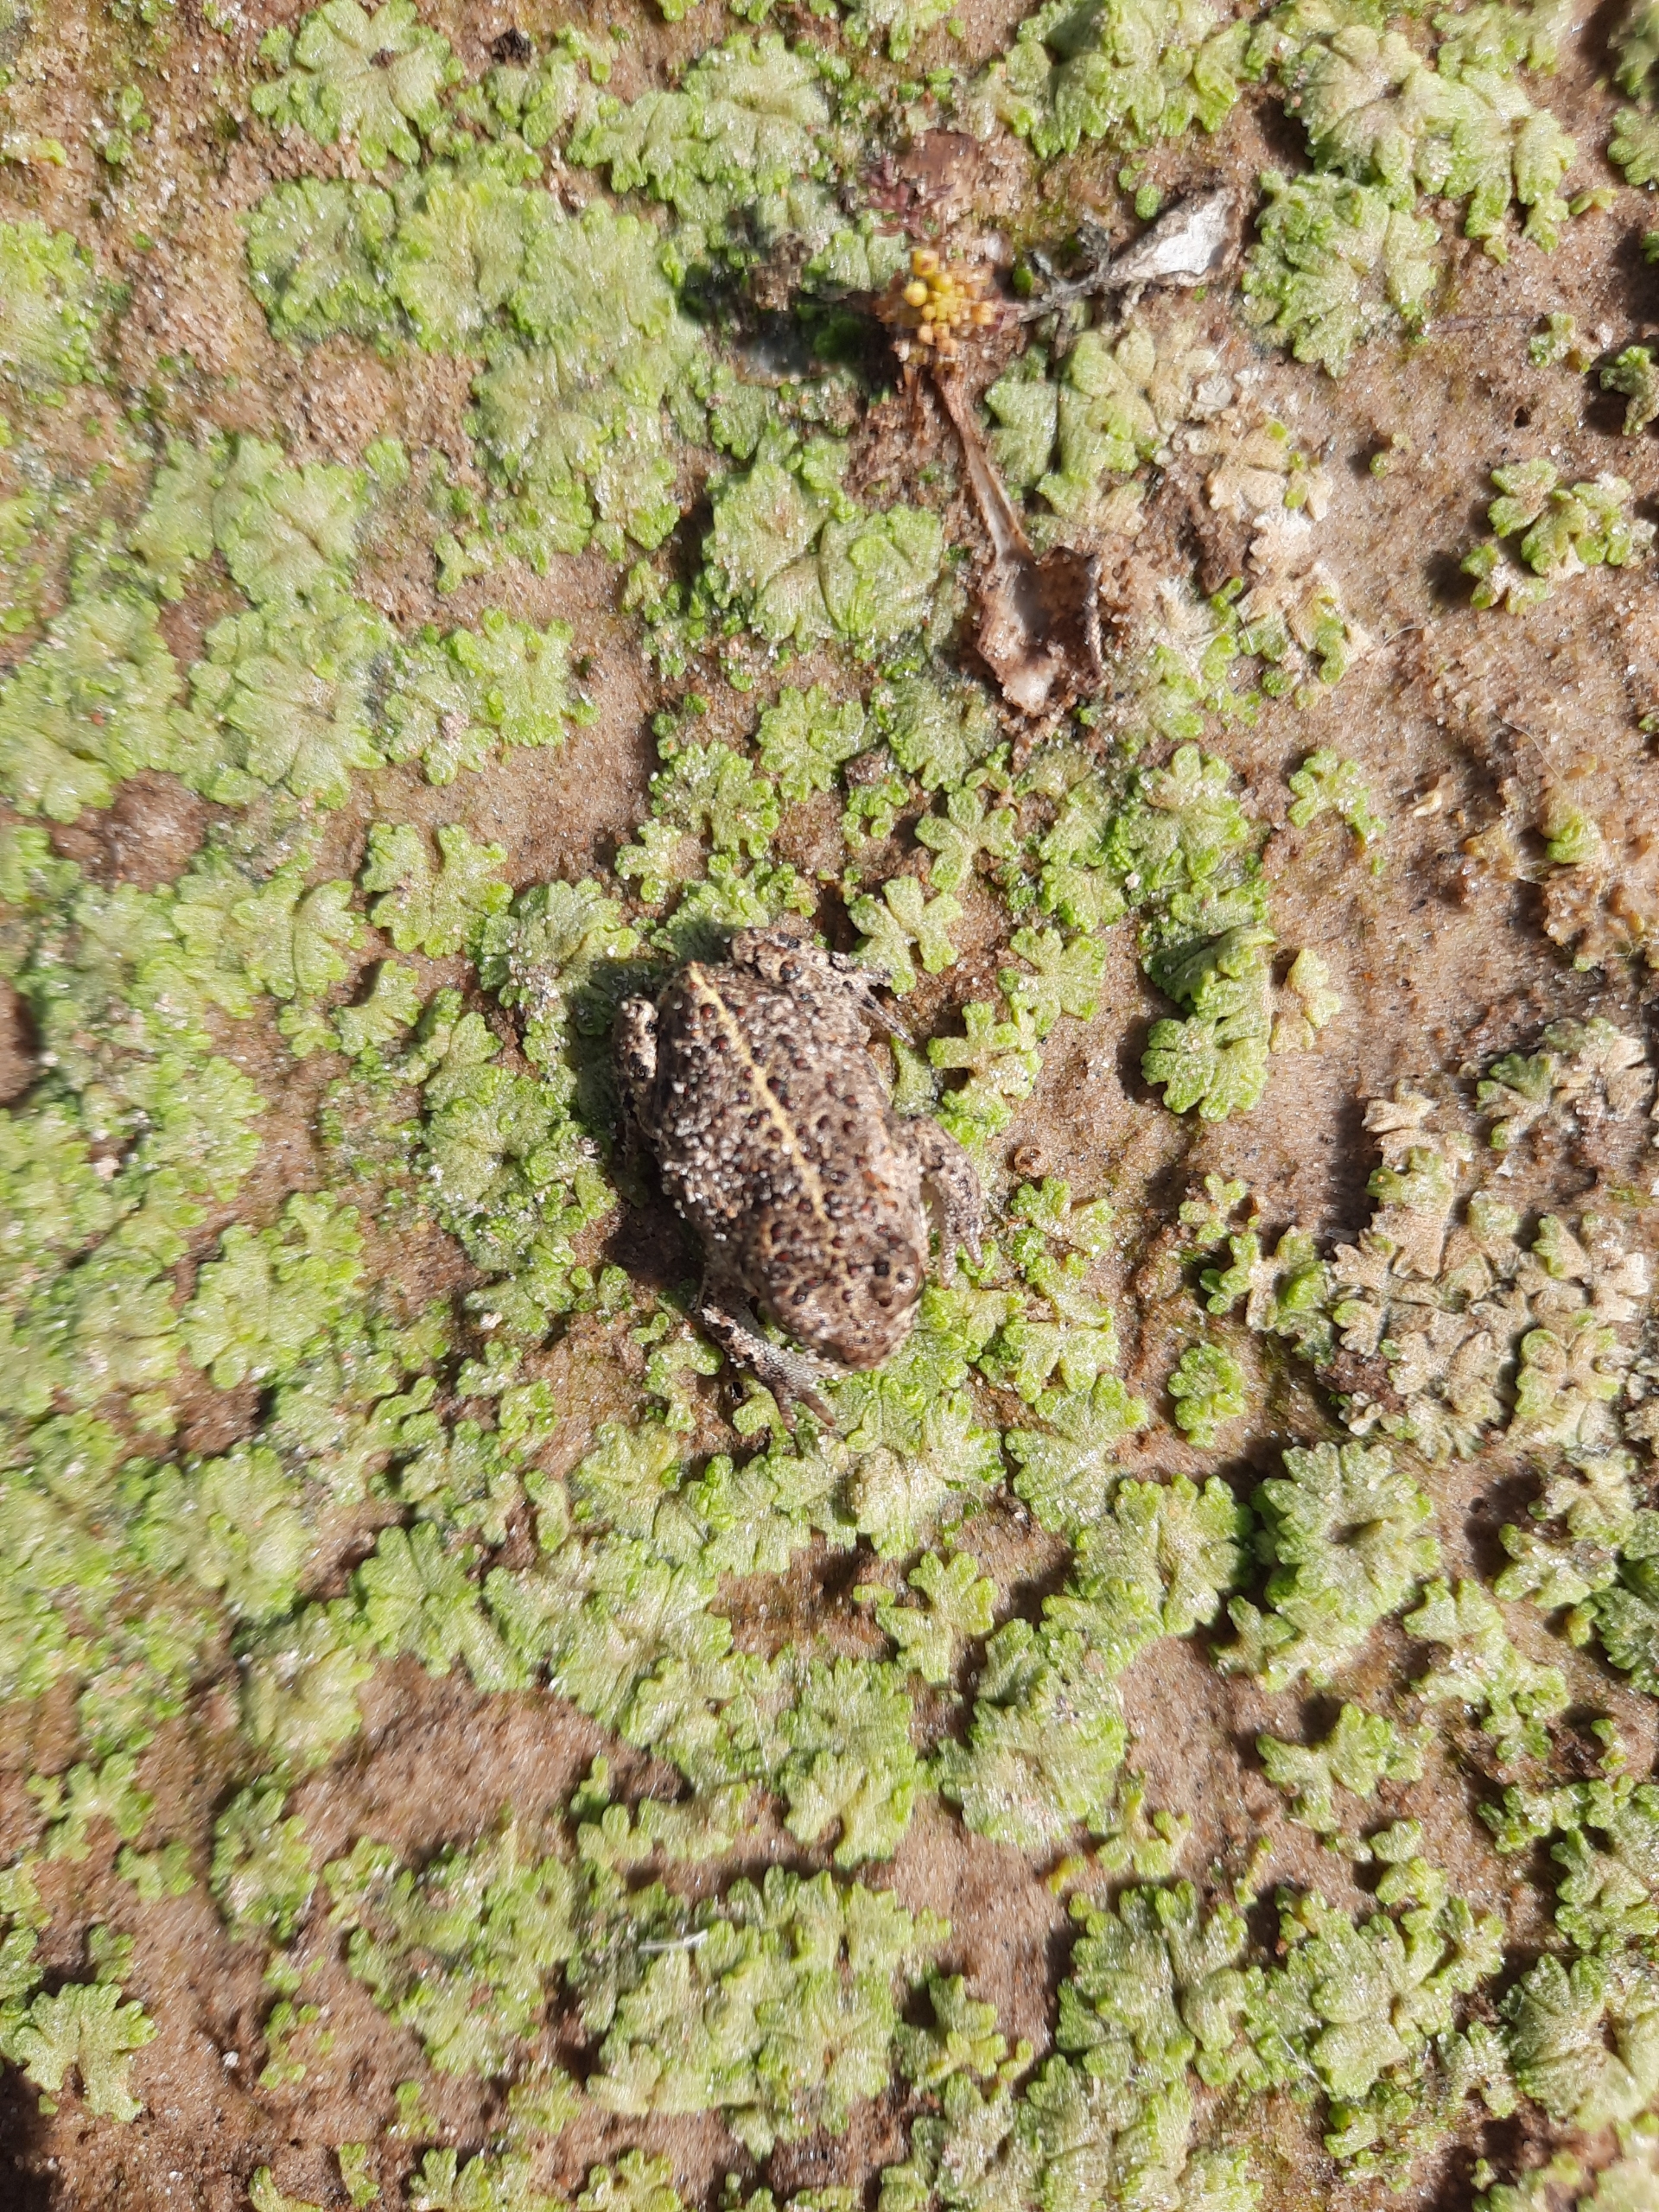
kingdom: Animalia
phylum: Chordata
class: Amphibia
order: Anura
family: Bufonidae
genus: Epidalea
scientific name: Epidalea calamita
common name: Strandtudse
